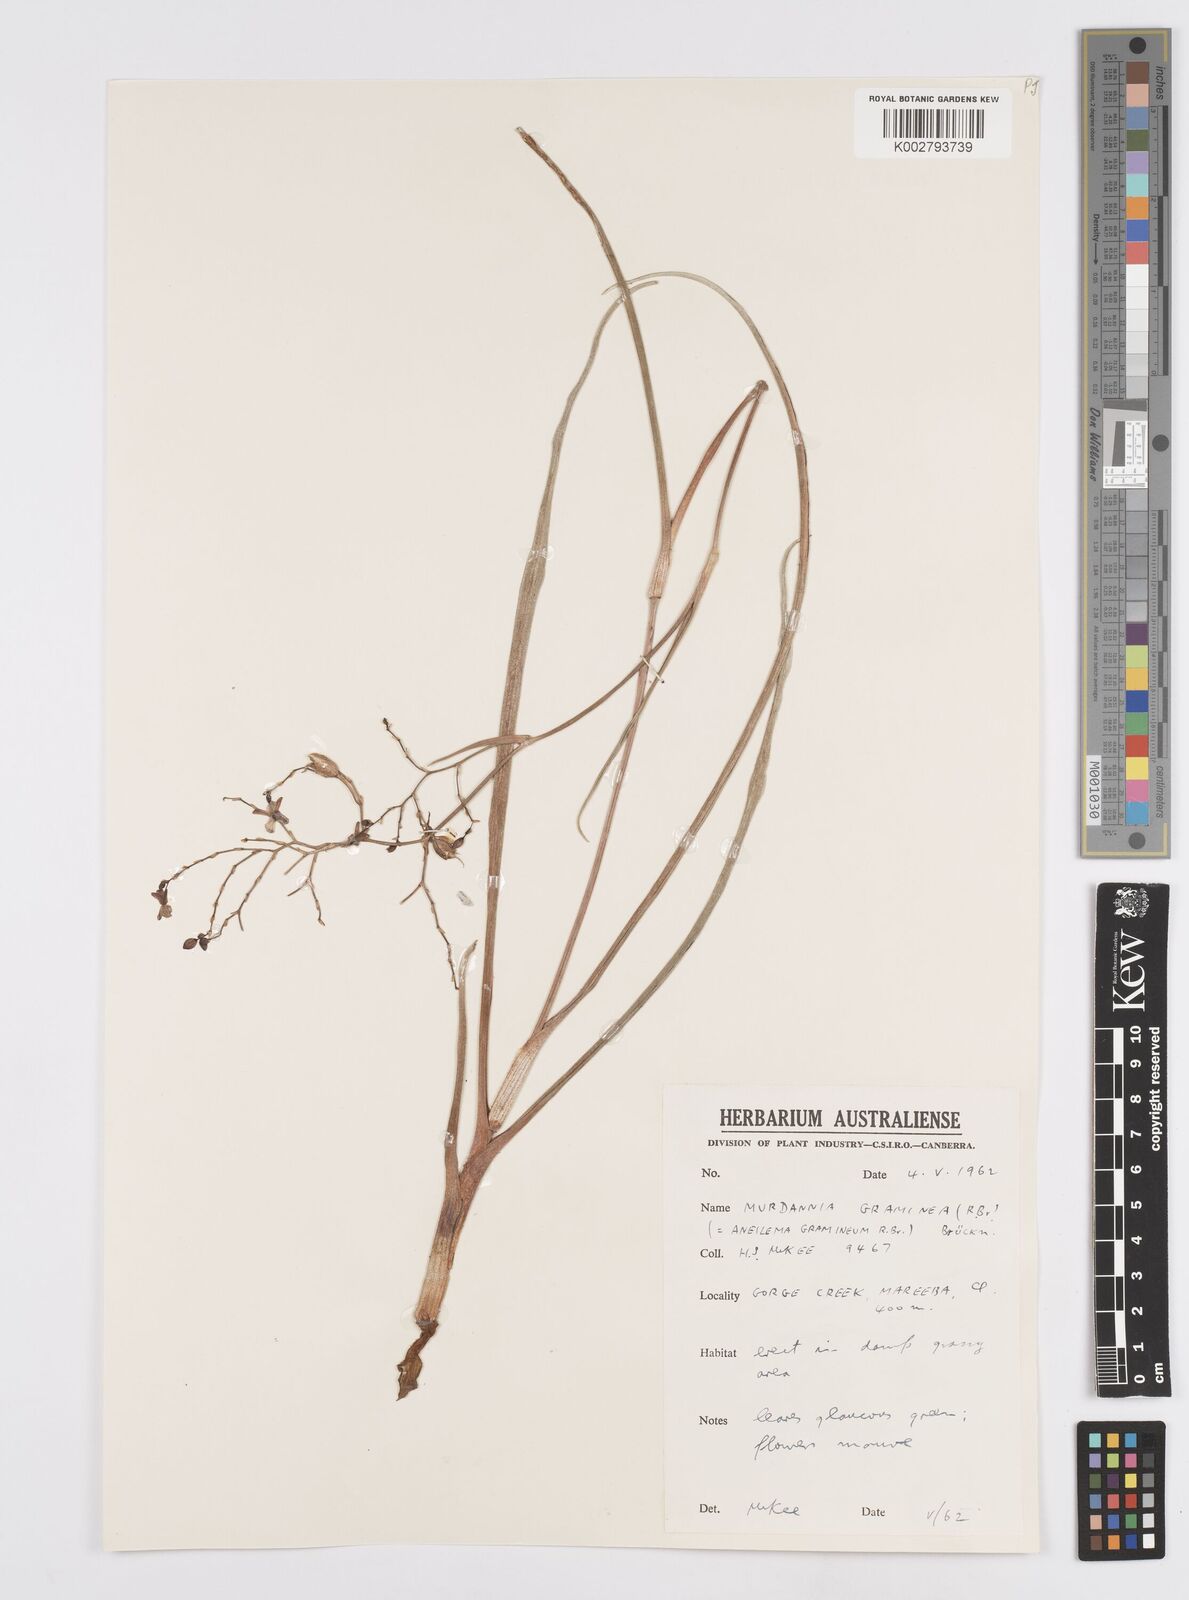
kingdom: Plantae
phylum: Tracheophyta
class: Liliopsida
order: Commelinales
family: Commelinaceae
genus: Murdannia
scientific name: Murdannia graminea
